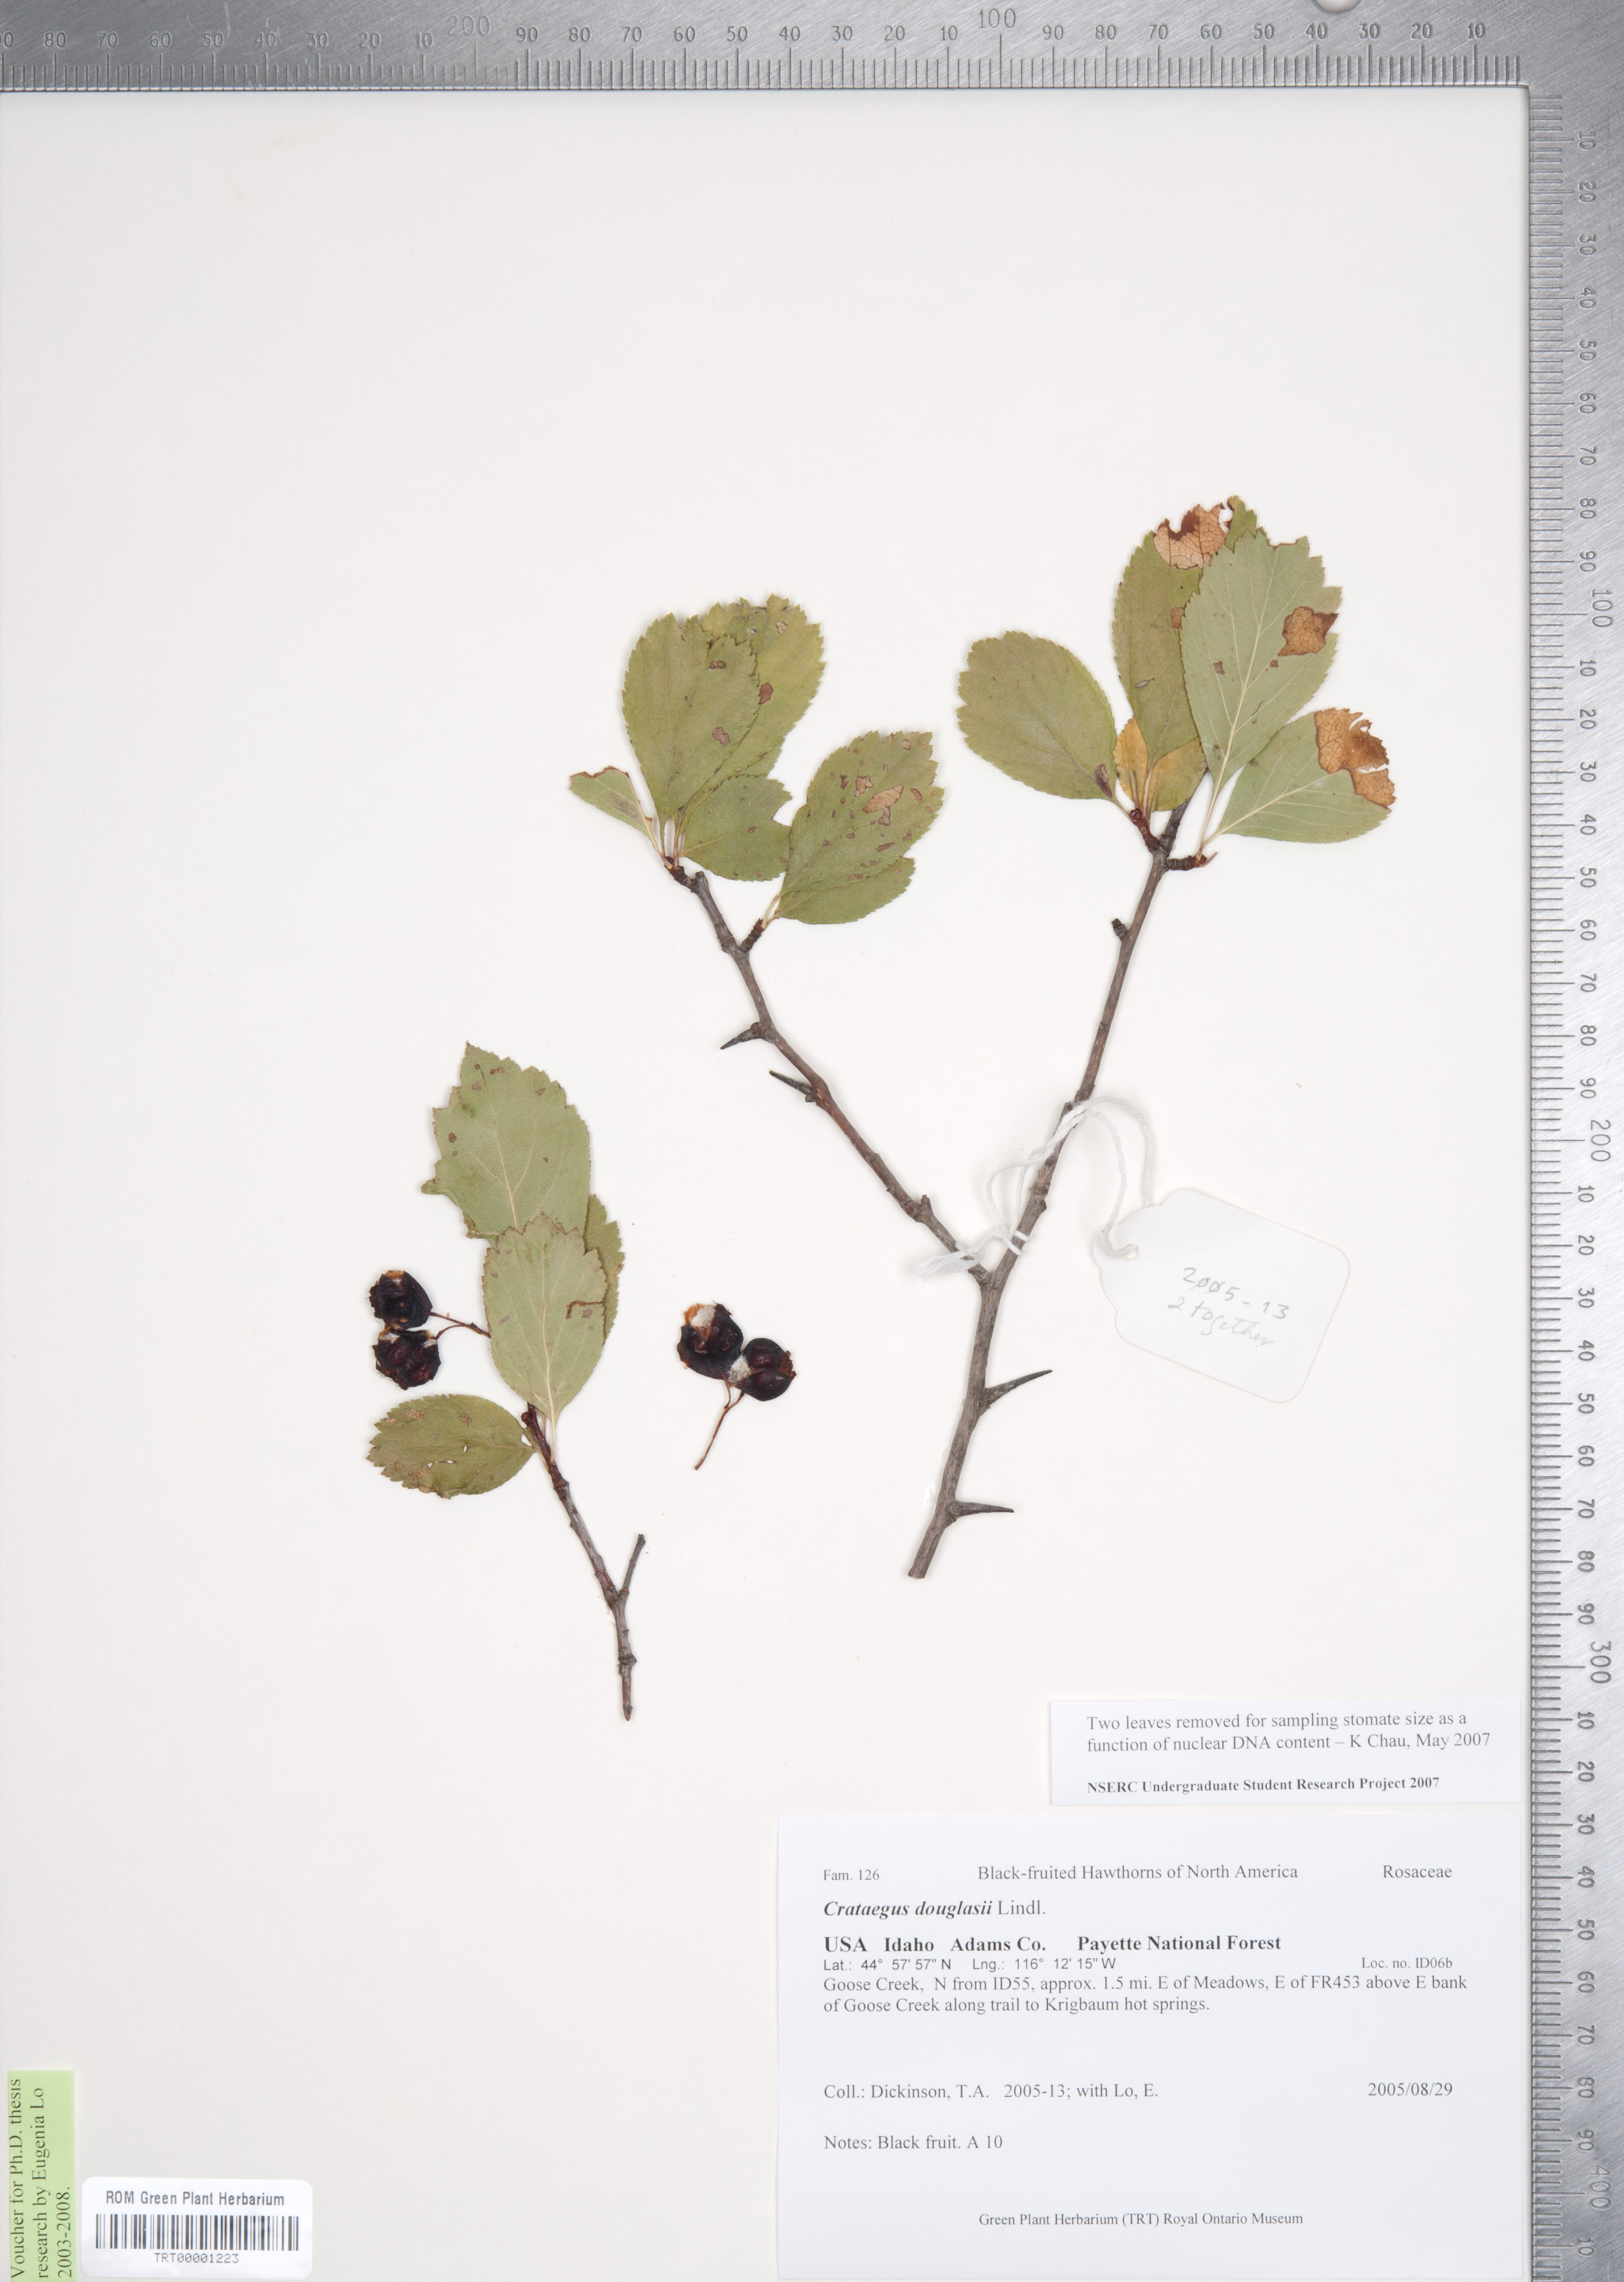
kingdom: Plantae
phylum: Tracheophyta
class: Magnoliopsida
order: Rosales
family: Rosaceae
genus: Crataegus
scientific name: Crataegus douglasii
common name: Black hawthorn
